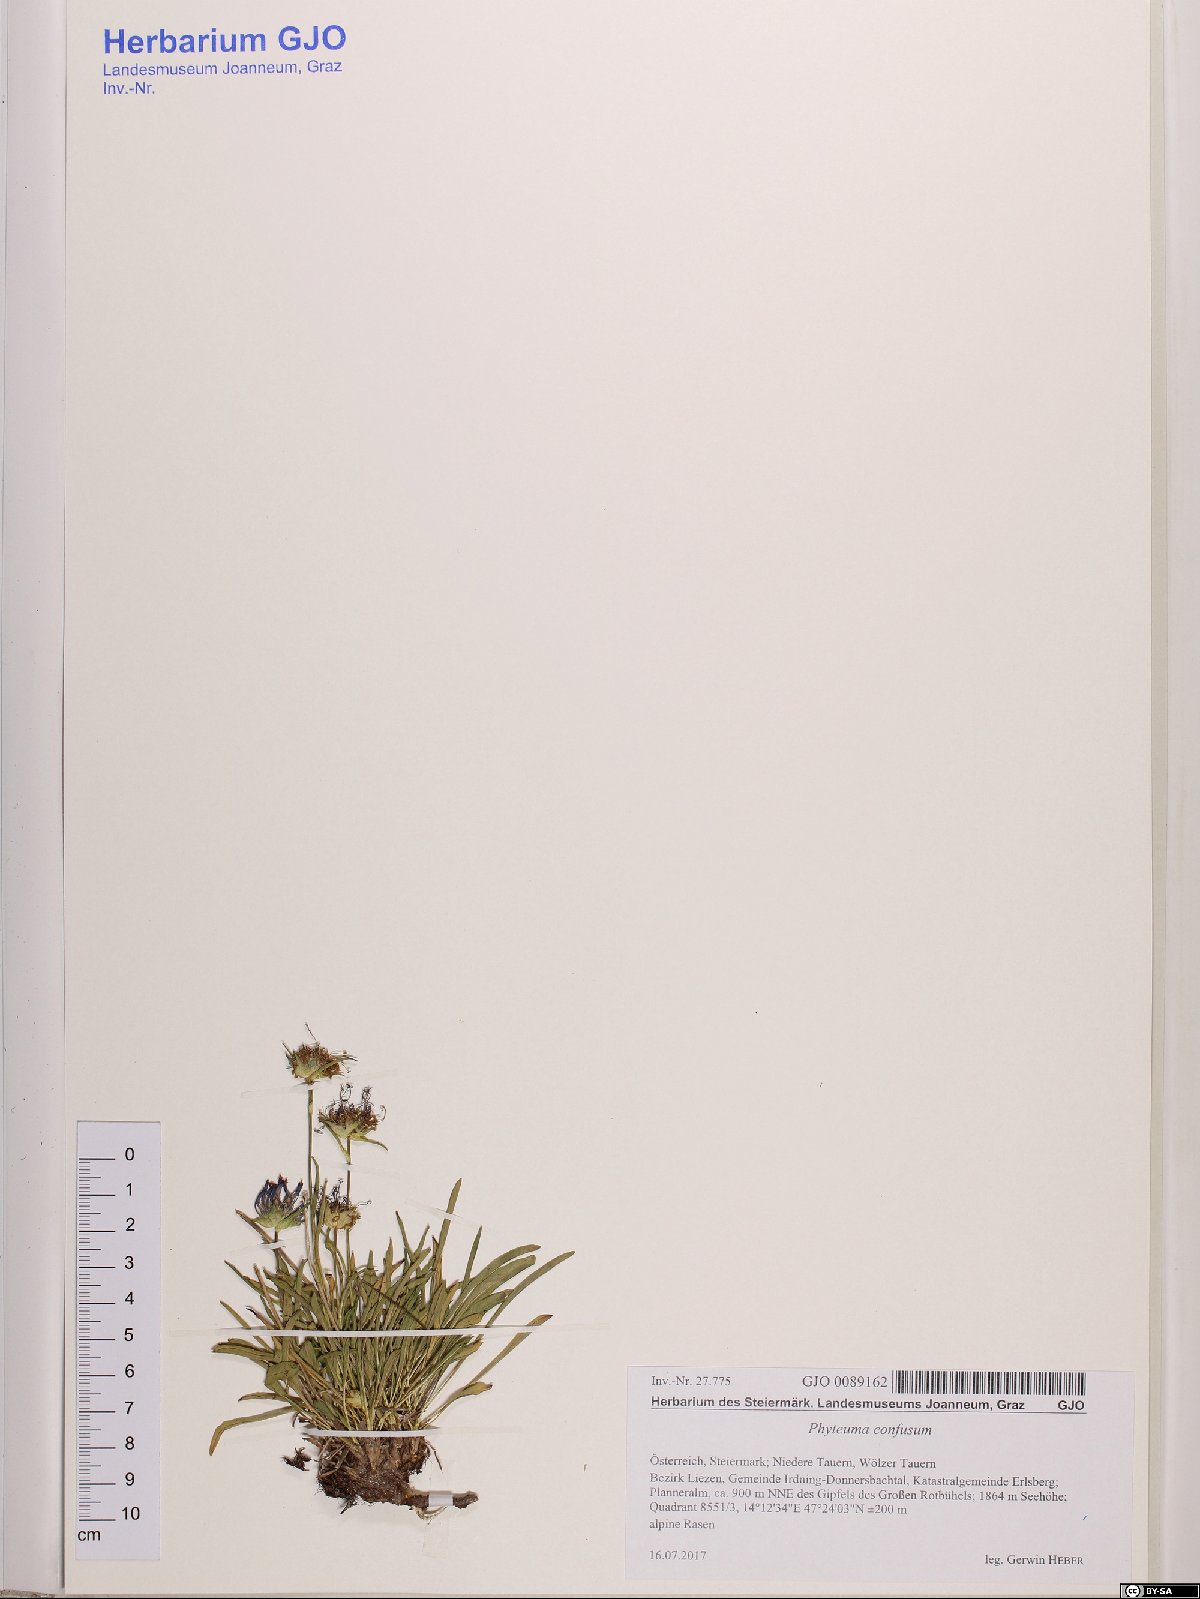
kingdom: Plantae
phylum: Tracheophyta
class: Magnoliopsida
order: Asterales
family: Campanulaceae
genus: Phyteuma
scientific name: Phyteuma confusum
